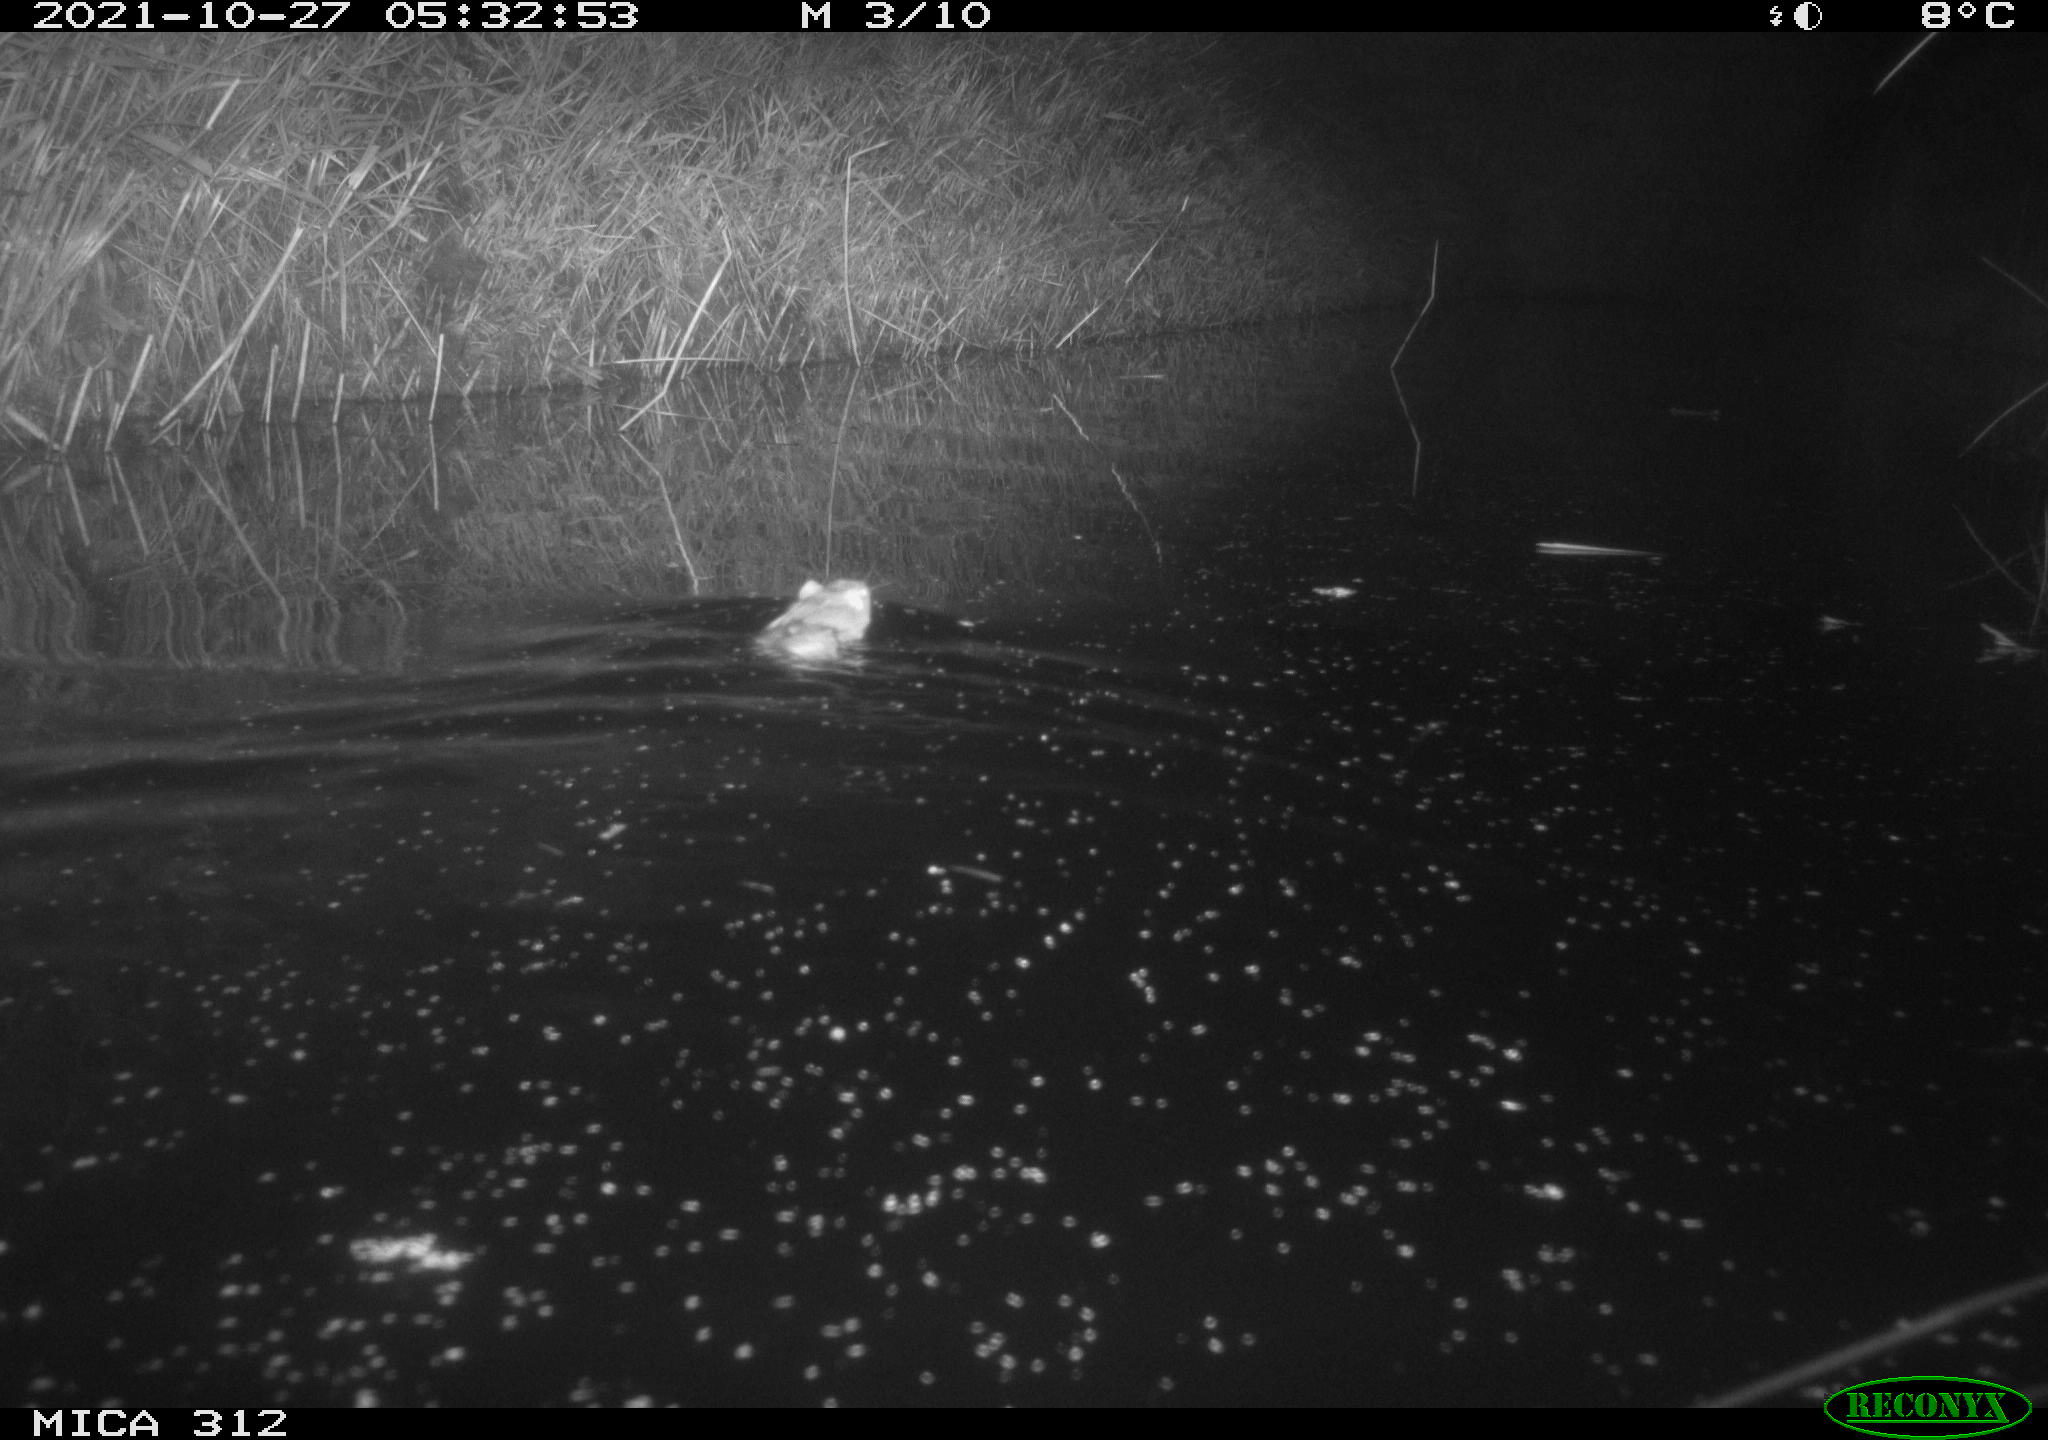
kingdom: Animalia
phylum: Chordata
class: Mammalia
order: Rodentia
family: Muridae
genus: Rattus
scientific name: Rattus norvegicus
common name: Brown rat
